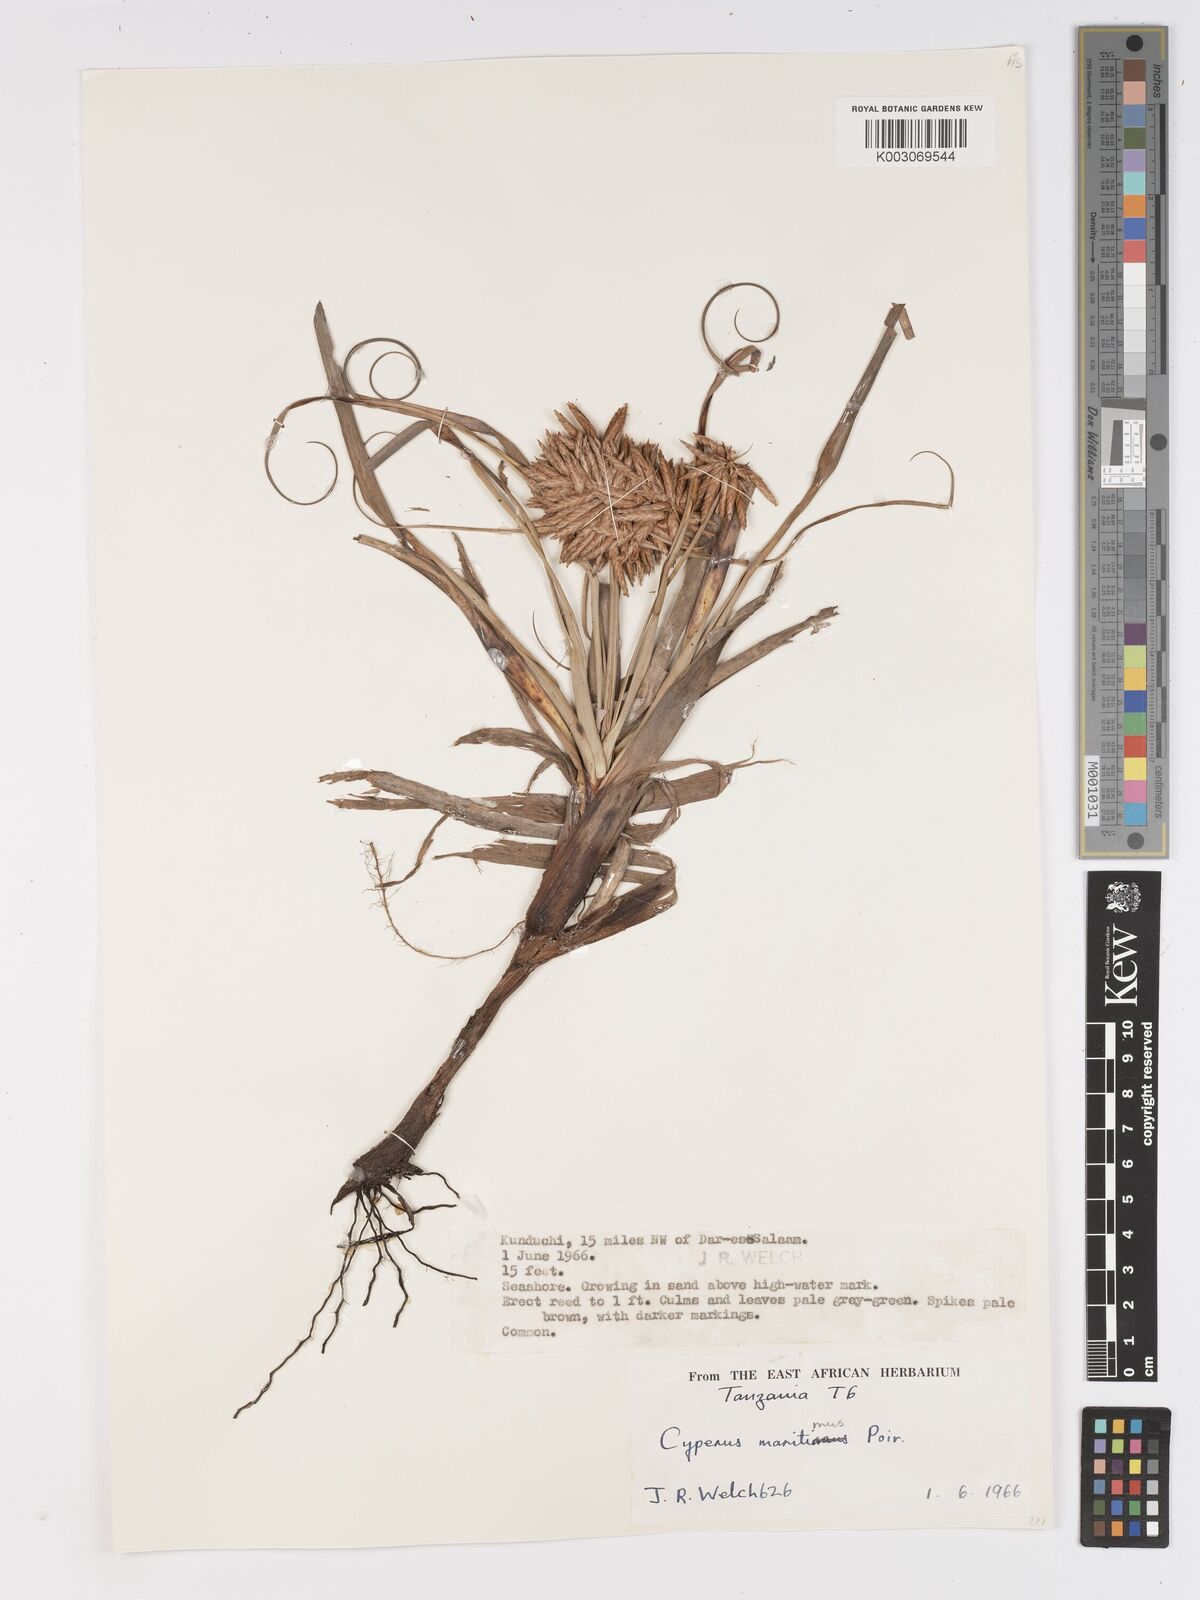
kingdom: Plantae
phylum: Tracheophyta
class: Liliopsida
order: Poales
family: Cyperaceae
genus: Cyperus
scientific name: Cyperus crassipes
